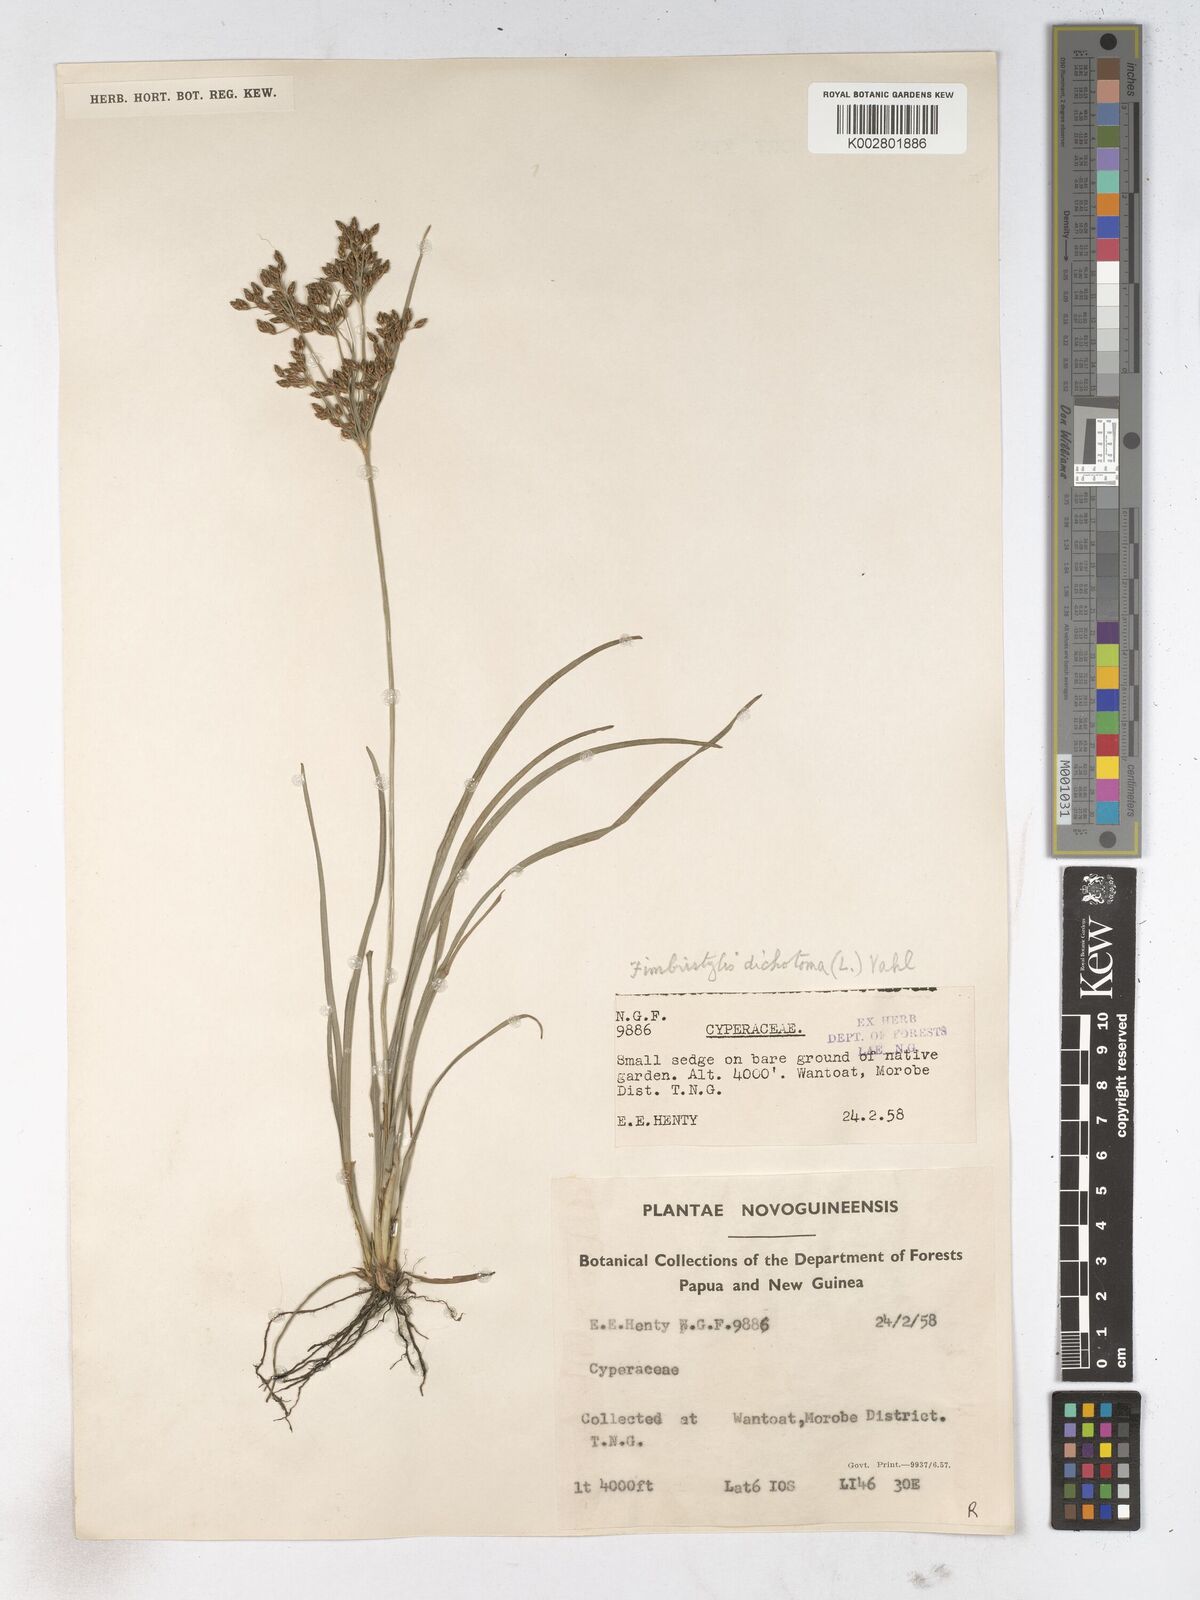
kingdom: Plantae
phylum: Tracheophyta
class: Liliopsida
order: Poales
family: Cyperaceae
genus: Fimbristylis
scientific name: Fimbristylis dichotoma
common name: Forked fimbry
